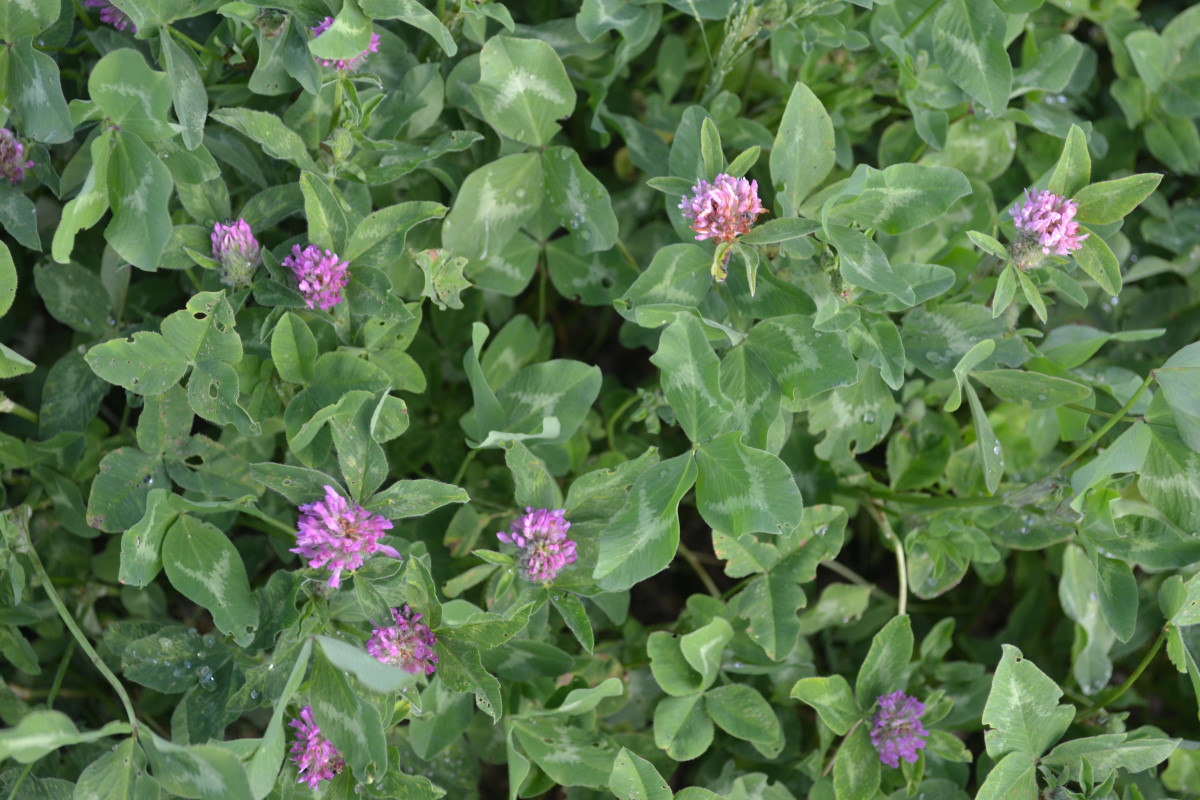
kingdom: Plantae
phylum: Tracheophyta
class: Magnoliopsida
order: Fabales
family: Fabaceae
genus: Trifolium
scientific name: Trifolium pratense
